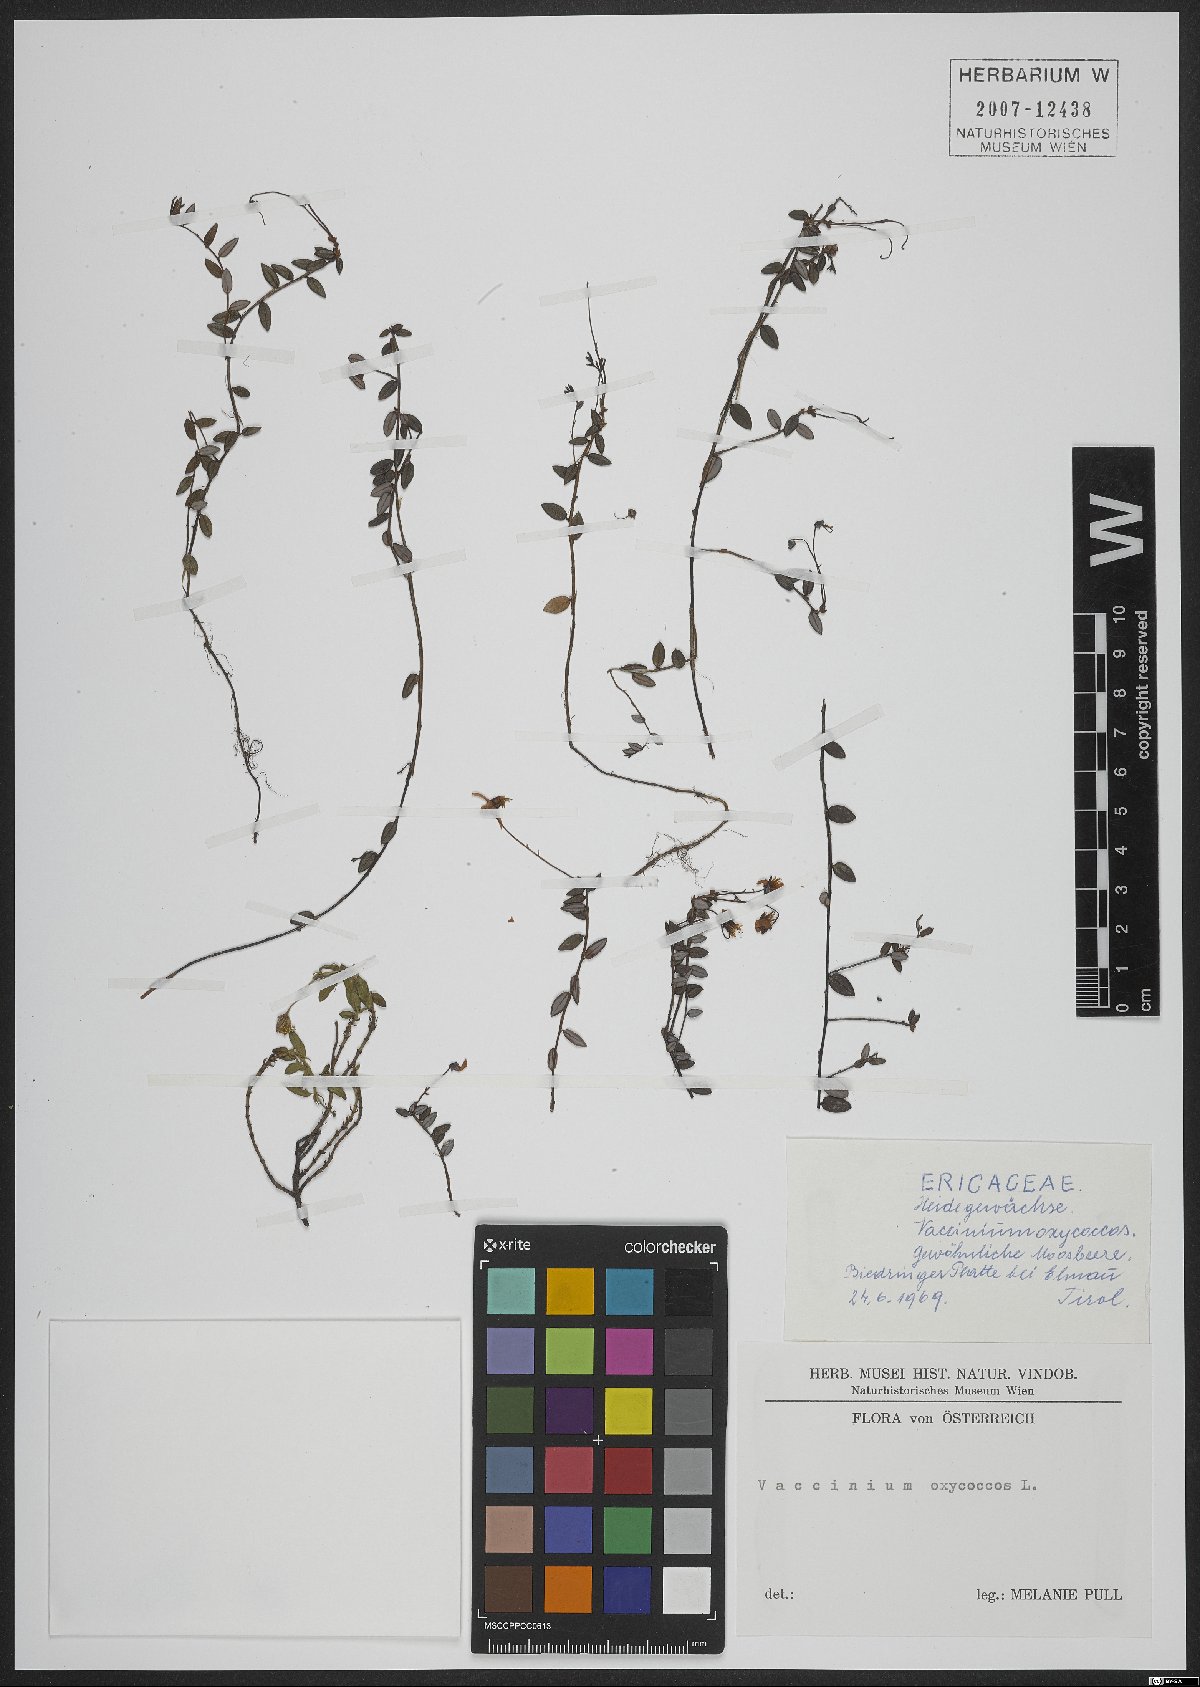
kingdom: Plantae
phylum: Tracheophyta
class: Magnoliopsida
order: Ericales
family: Ericaceae
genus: Vaccinium
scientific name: Vaccinium oxycoccos
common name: Cranberry
